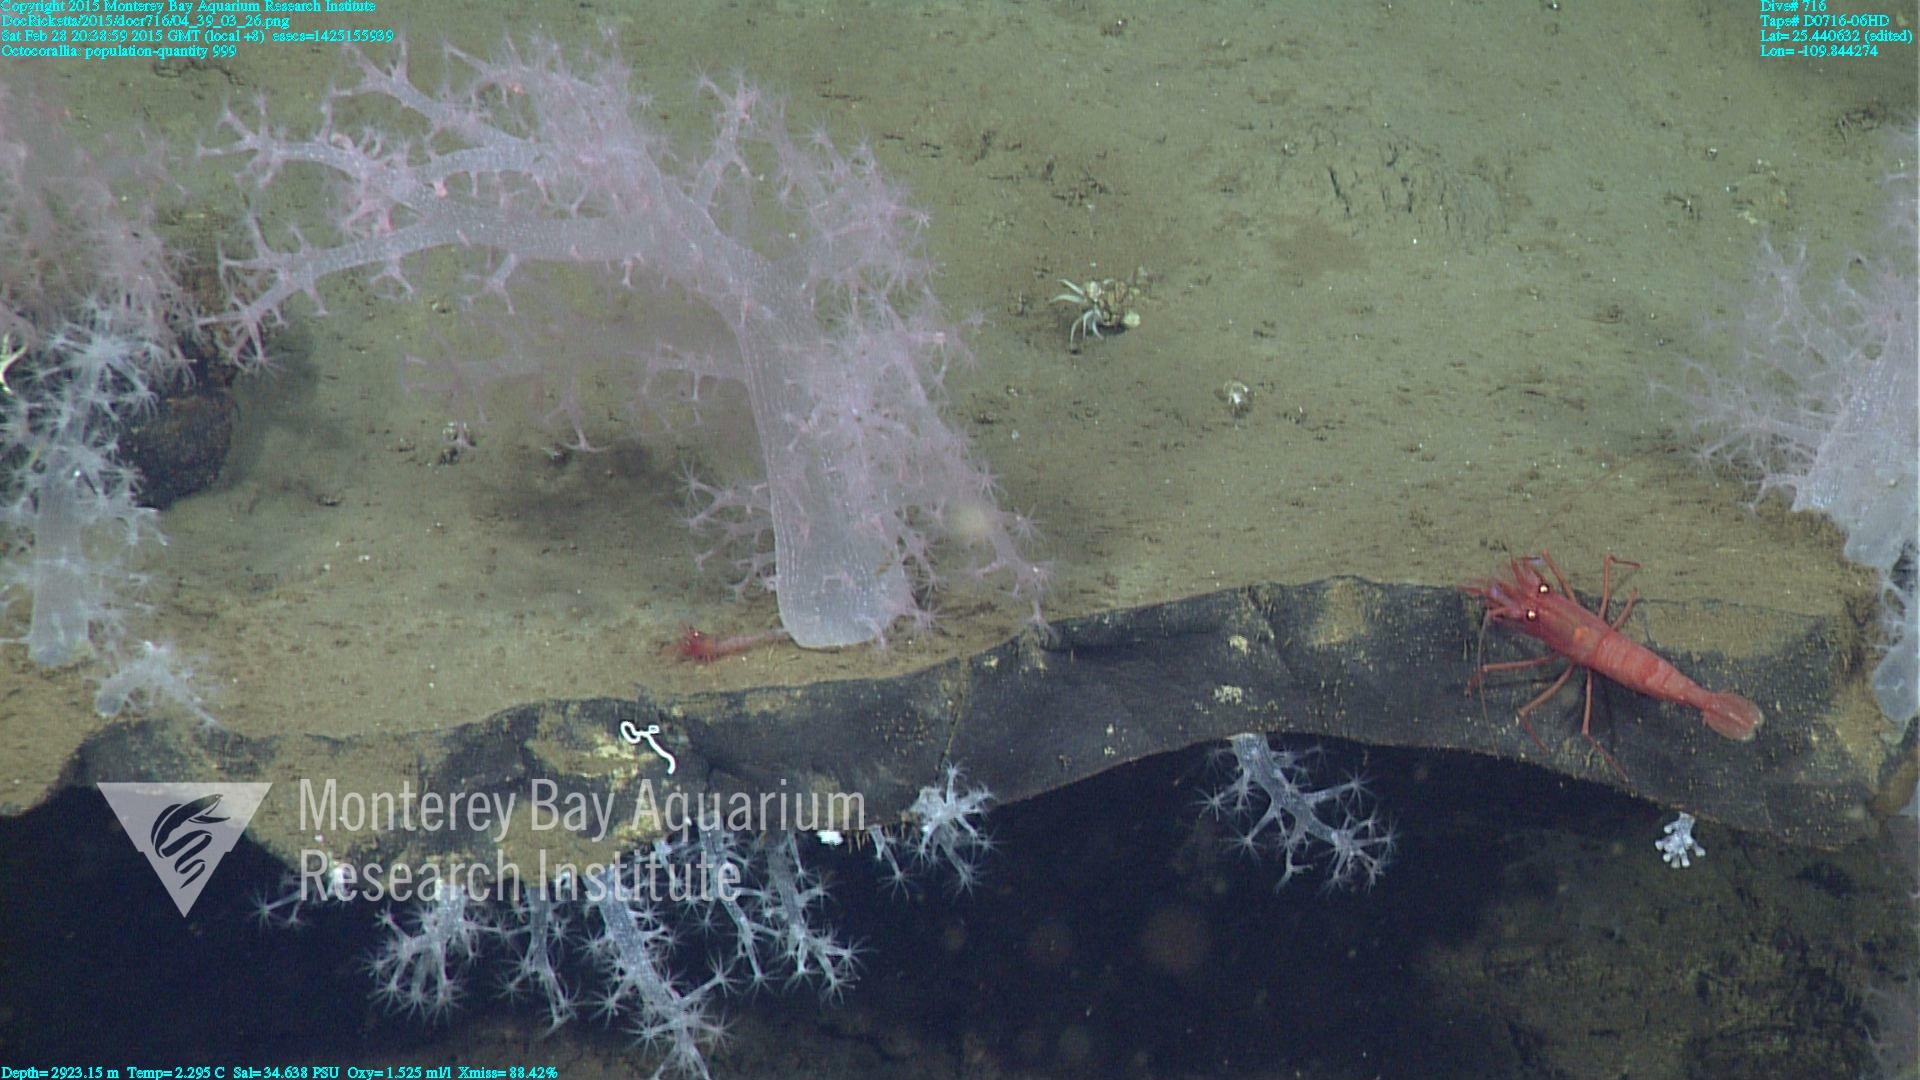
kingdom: Animalia
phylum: Cnidaria
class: Anthozoa
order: Malacalcyonacea
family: Alcyoniidae
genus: Gersemia
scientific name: Gersemia juliepackardae
